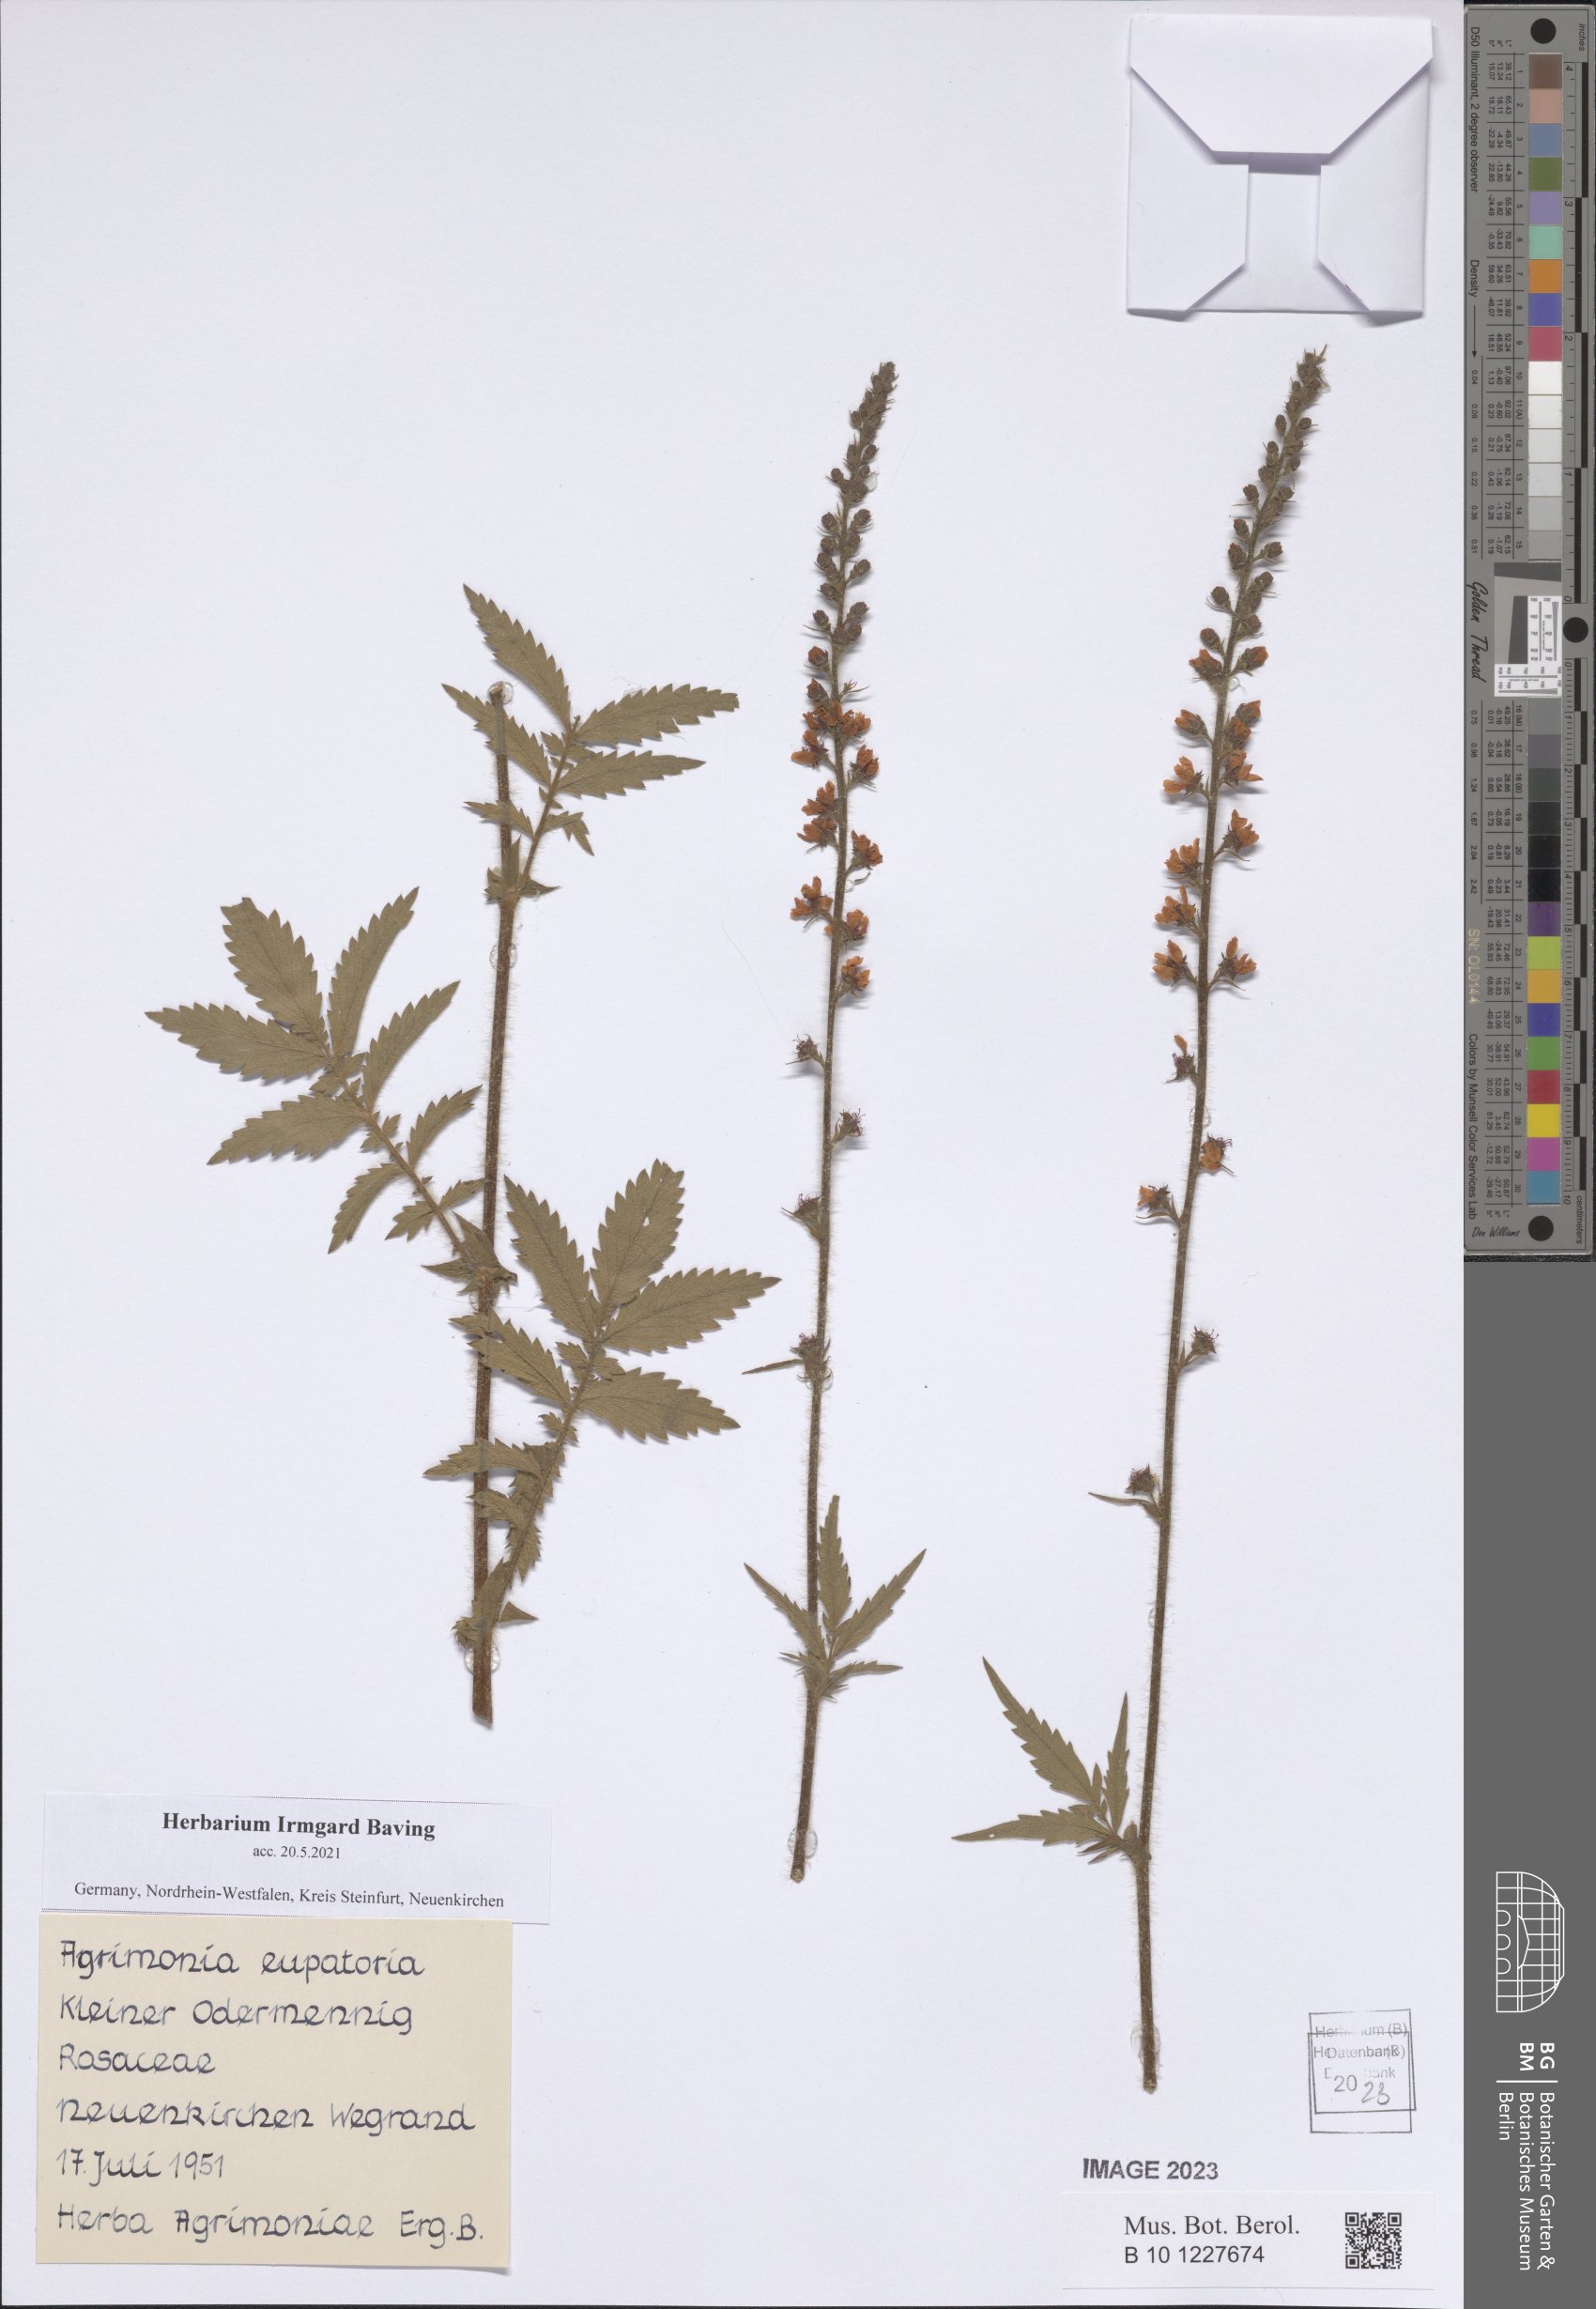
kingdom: Plantae
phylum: Tracheophyta
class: Magnoliopsida
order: Rosales
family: Rosaceae
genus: Agrimonia
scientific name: Agrimonia eupatoria
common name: Agrimony
